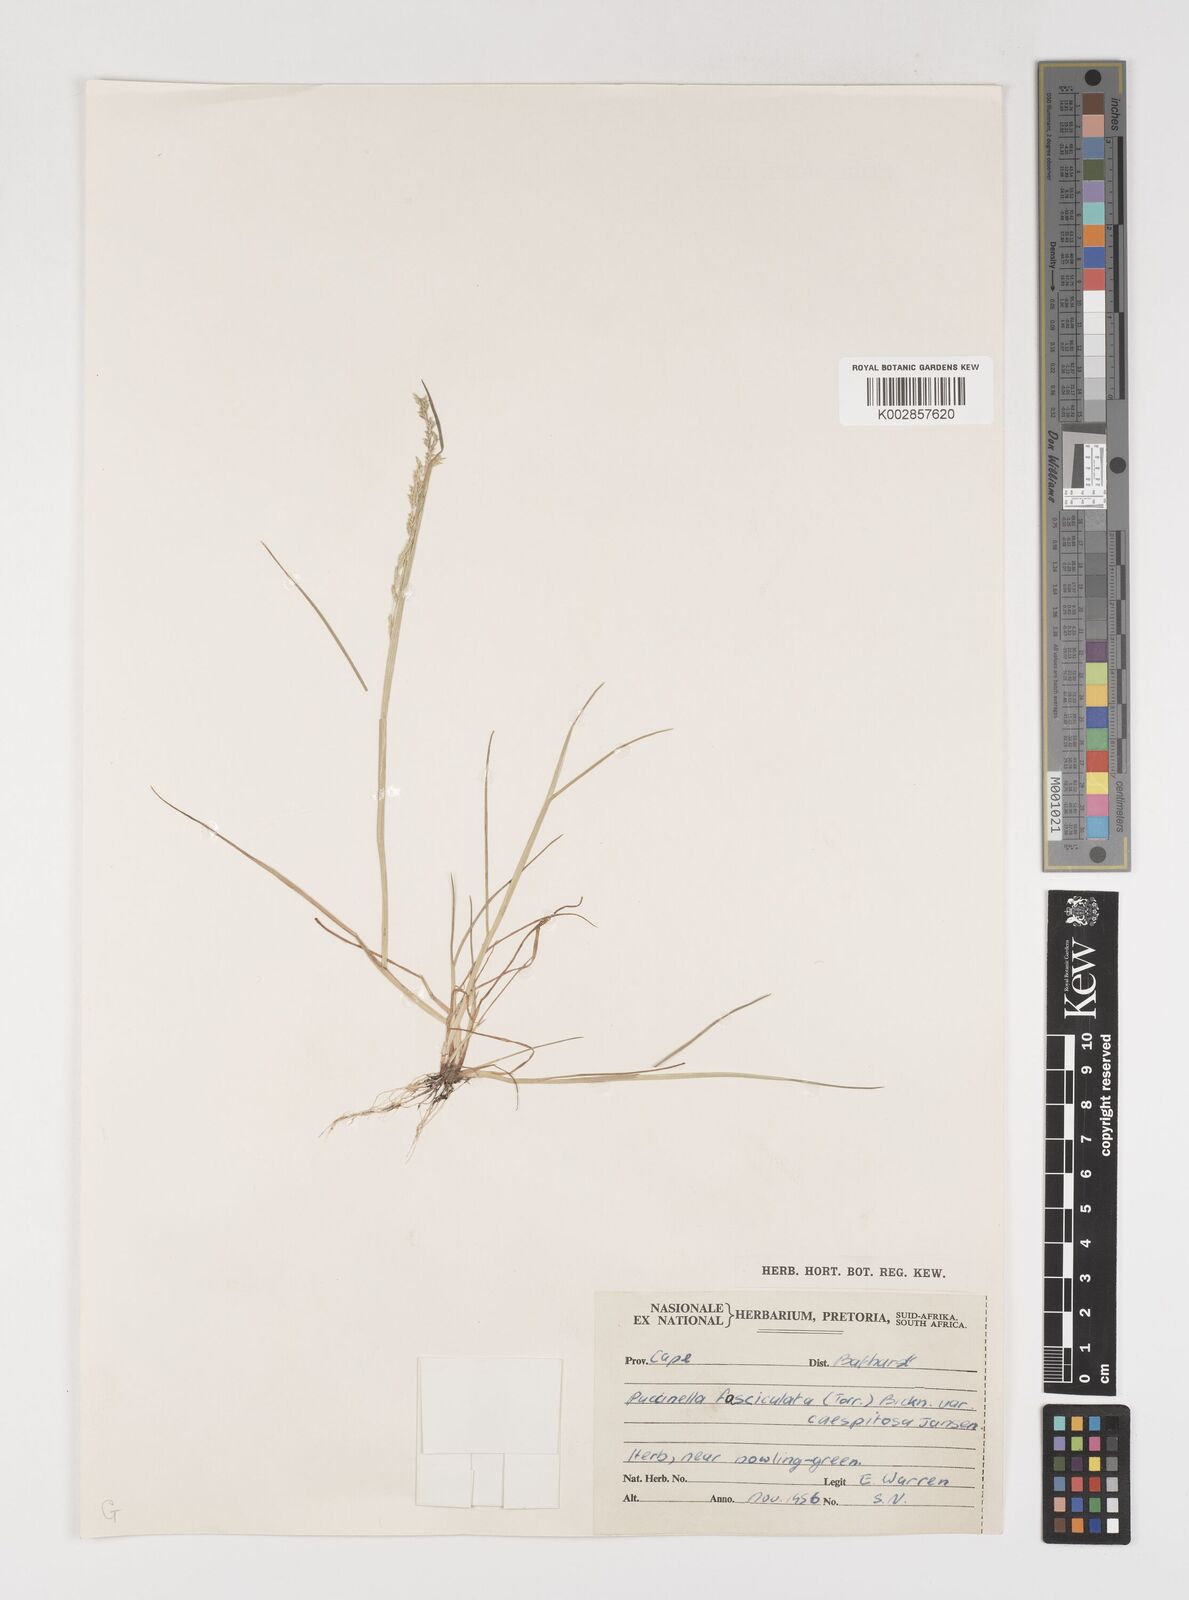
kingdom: Plantae
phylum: Tracheophyta
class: Liliopsida
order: Poales
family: Poaceae
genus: Puccinellia
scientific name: Puccinellia fasciculata
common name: Borrer's saltmarsh-grass
